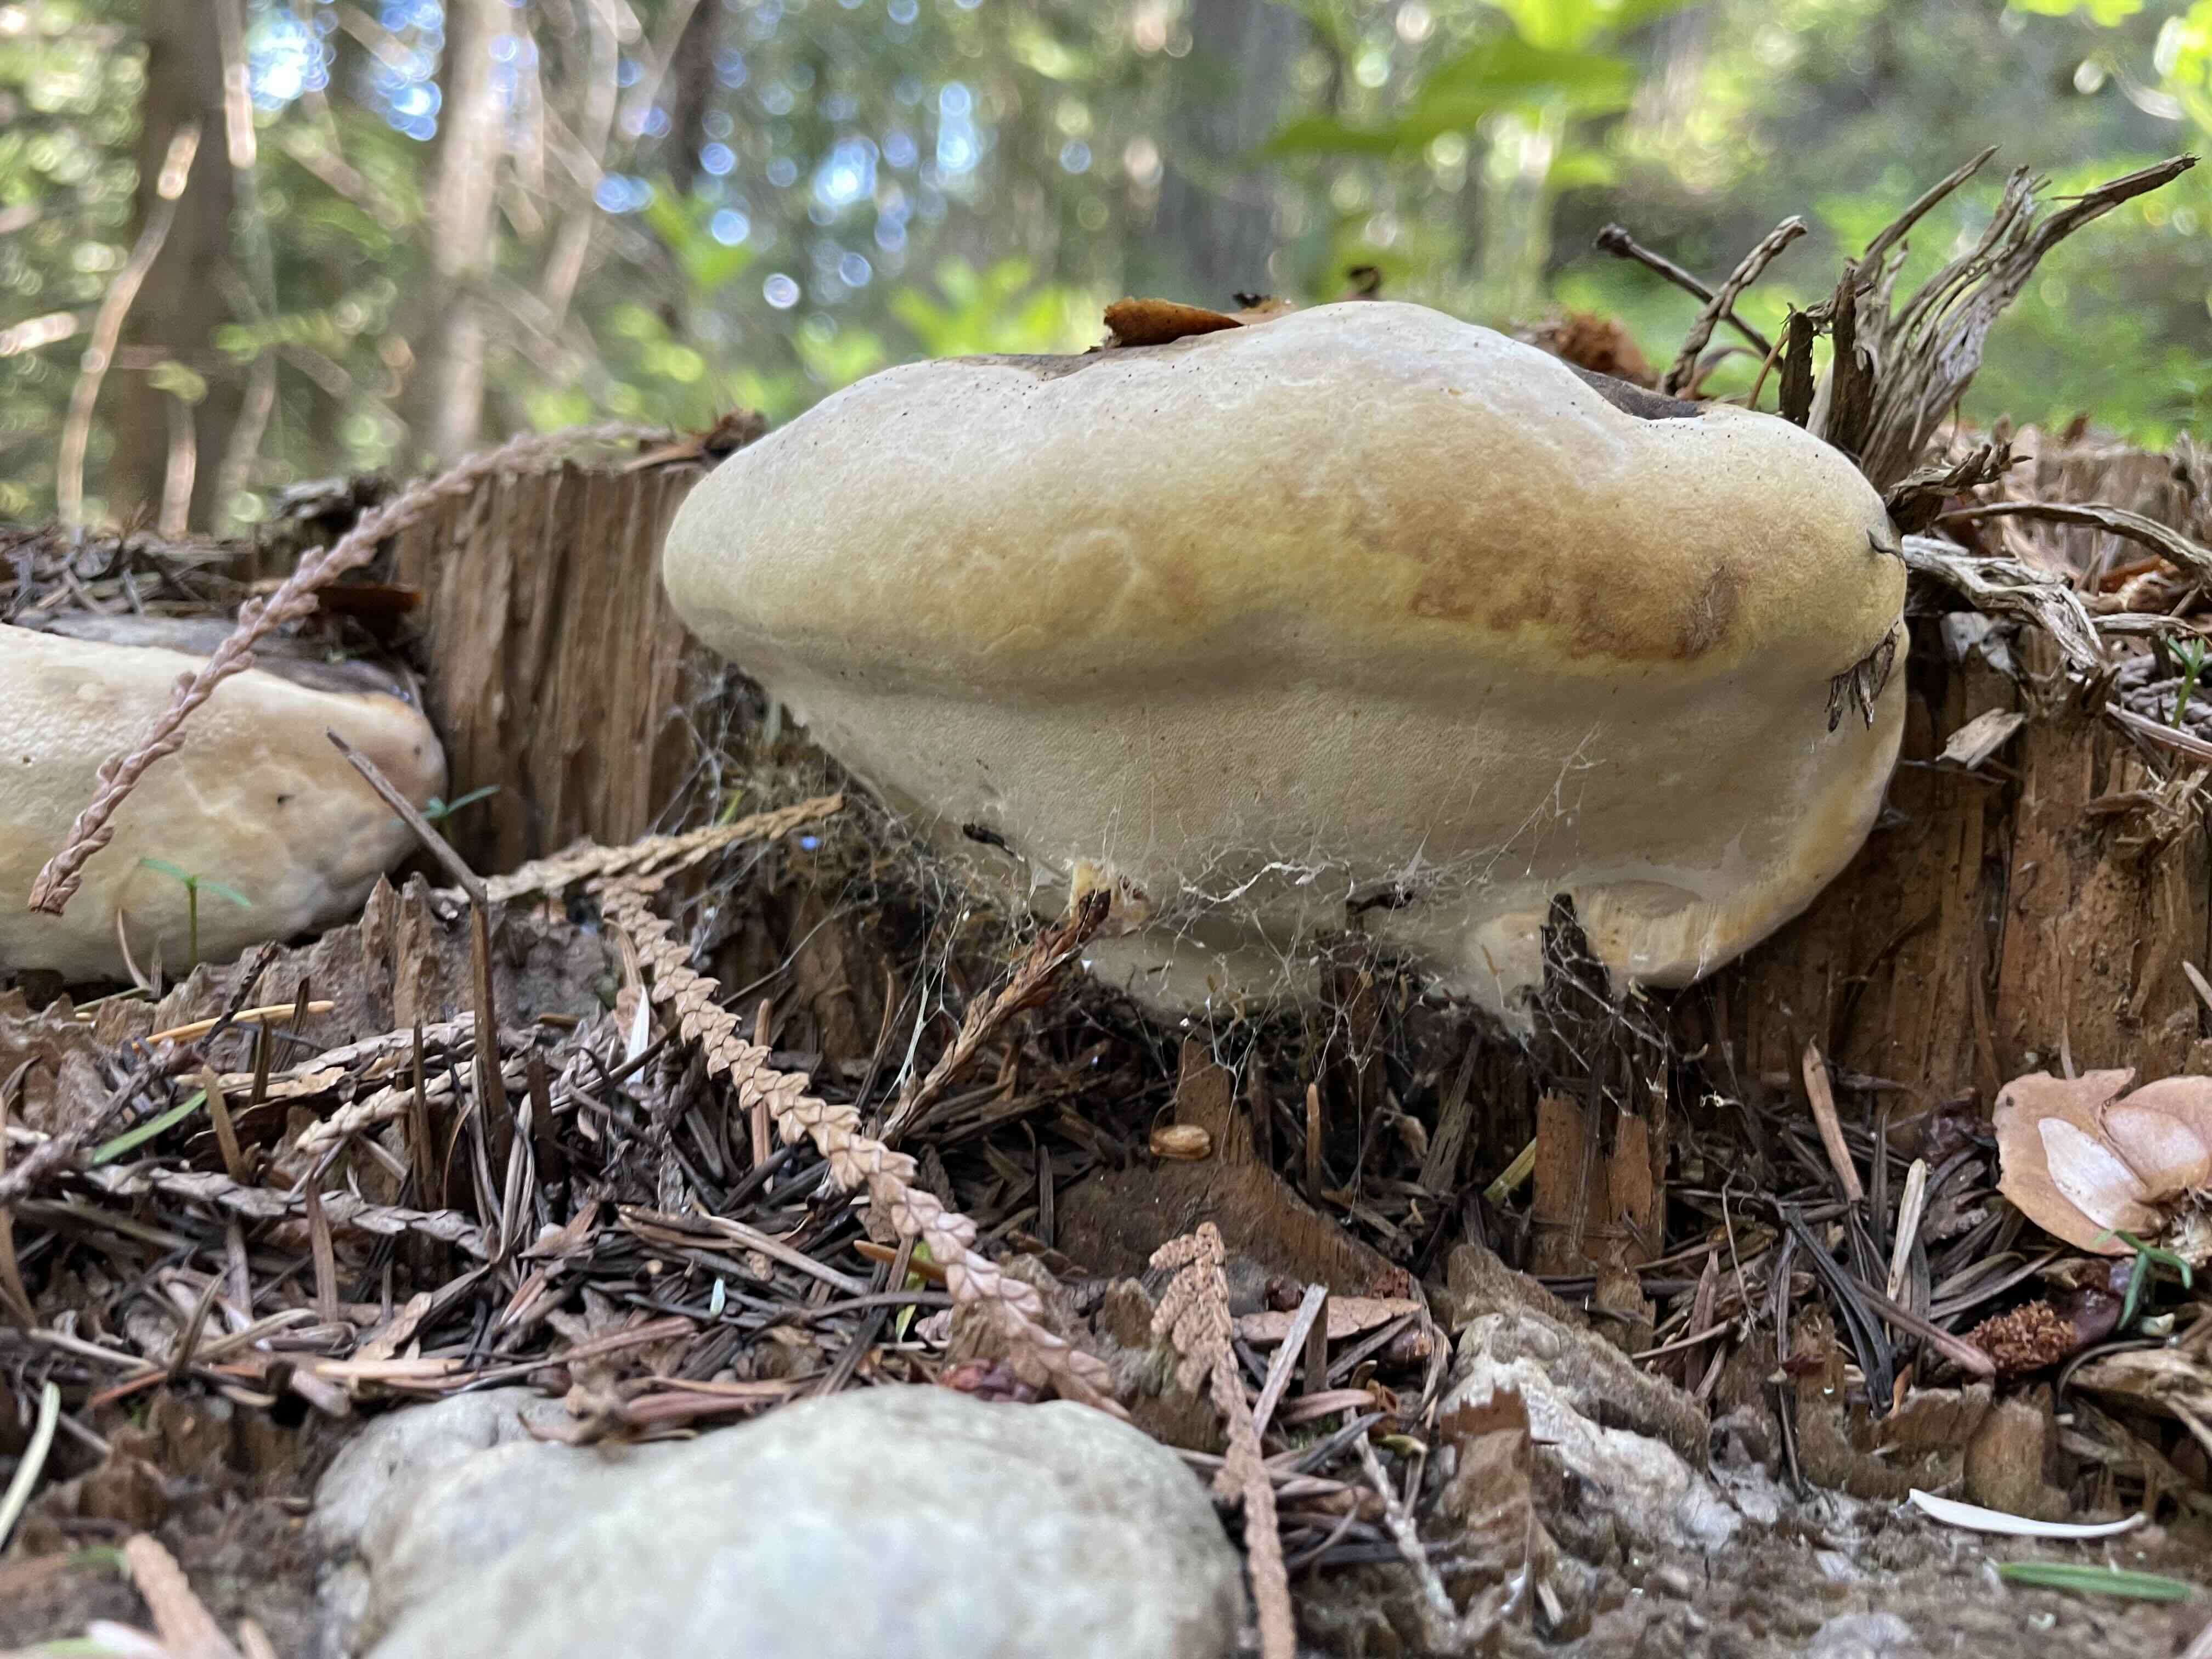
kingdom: Fungi
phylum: Basidiomycota
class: Agaricomycetes
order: Polyporales
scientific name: Polyporales
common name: poresvampordenen
